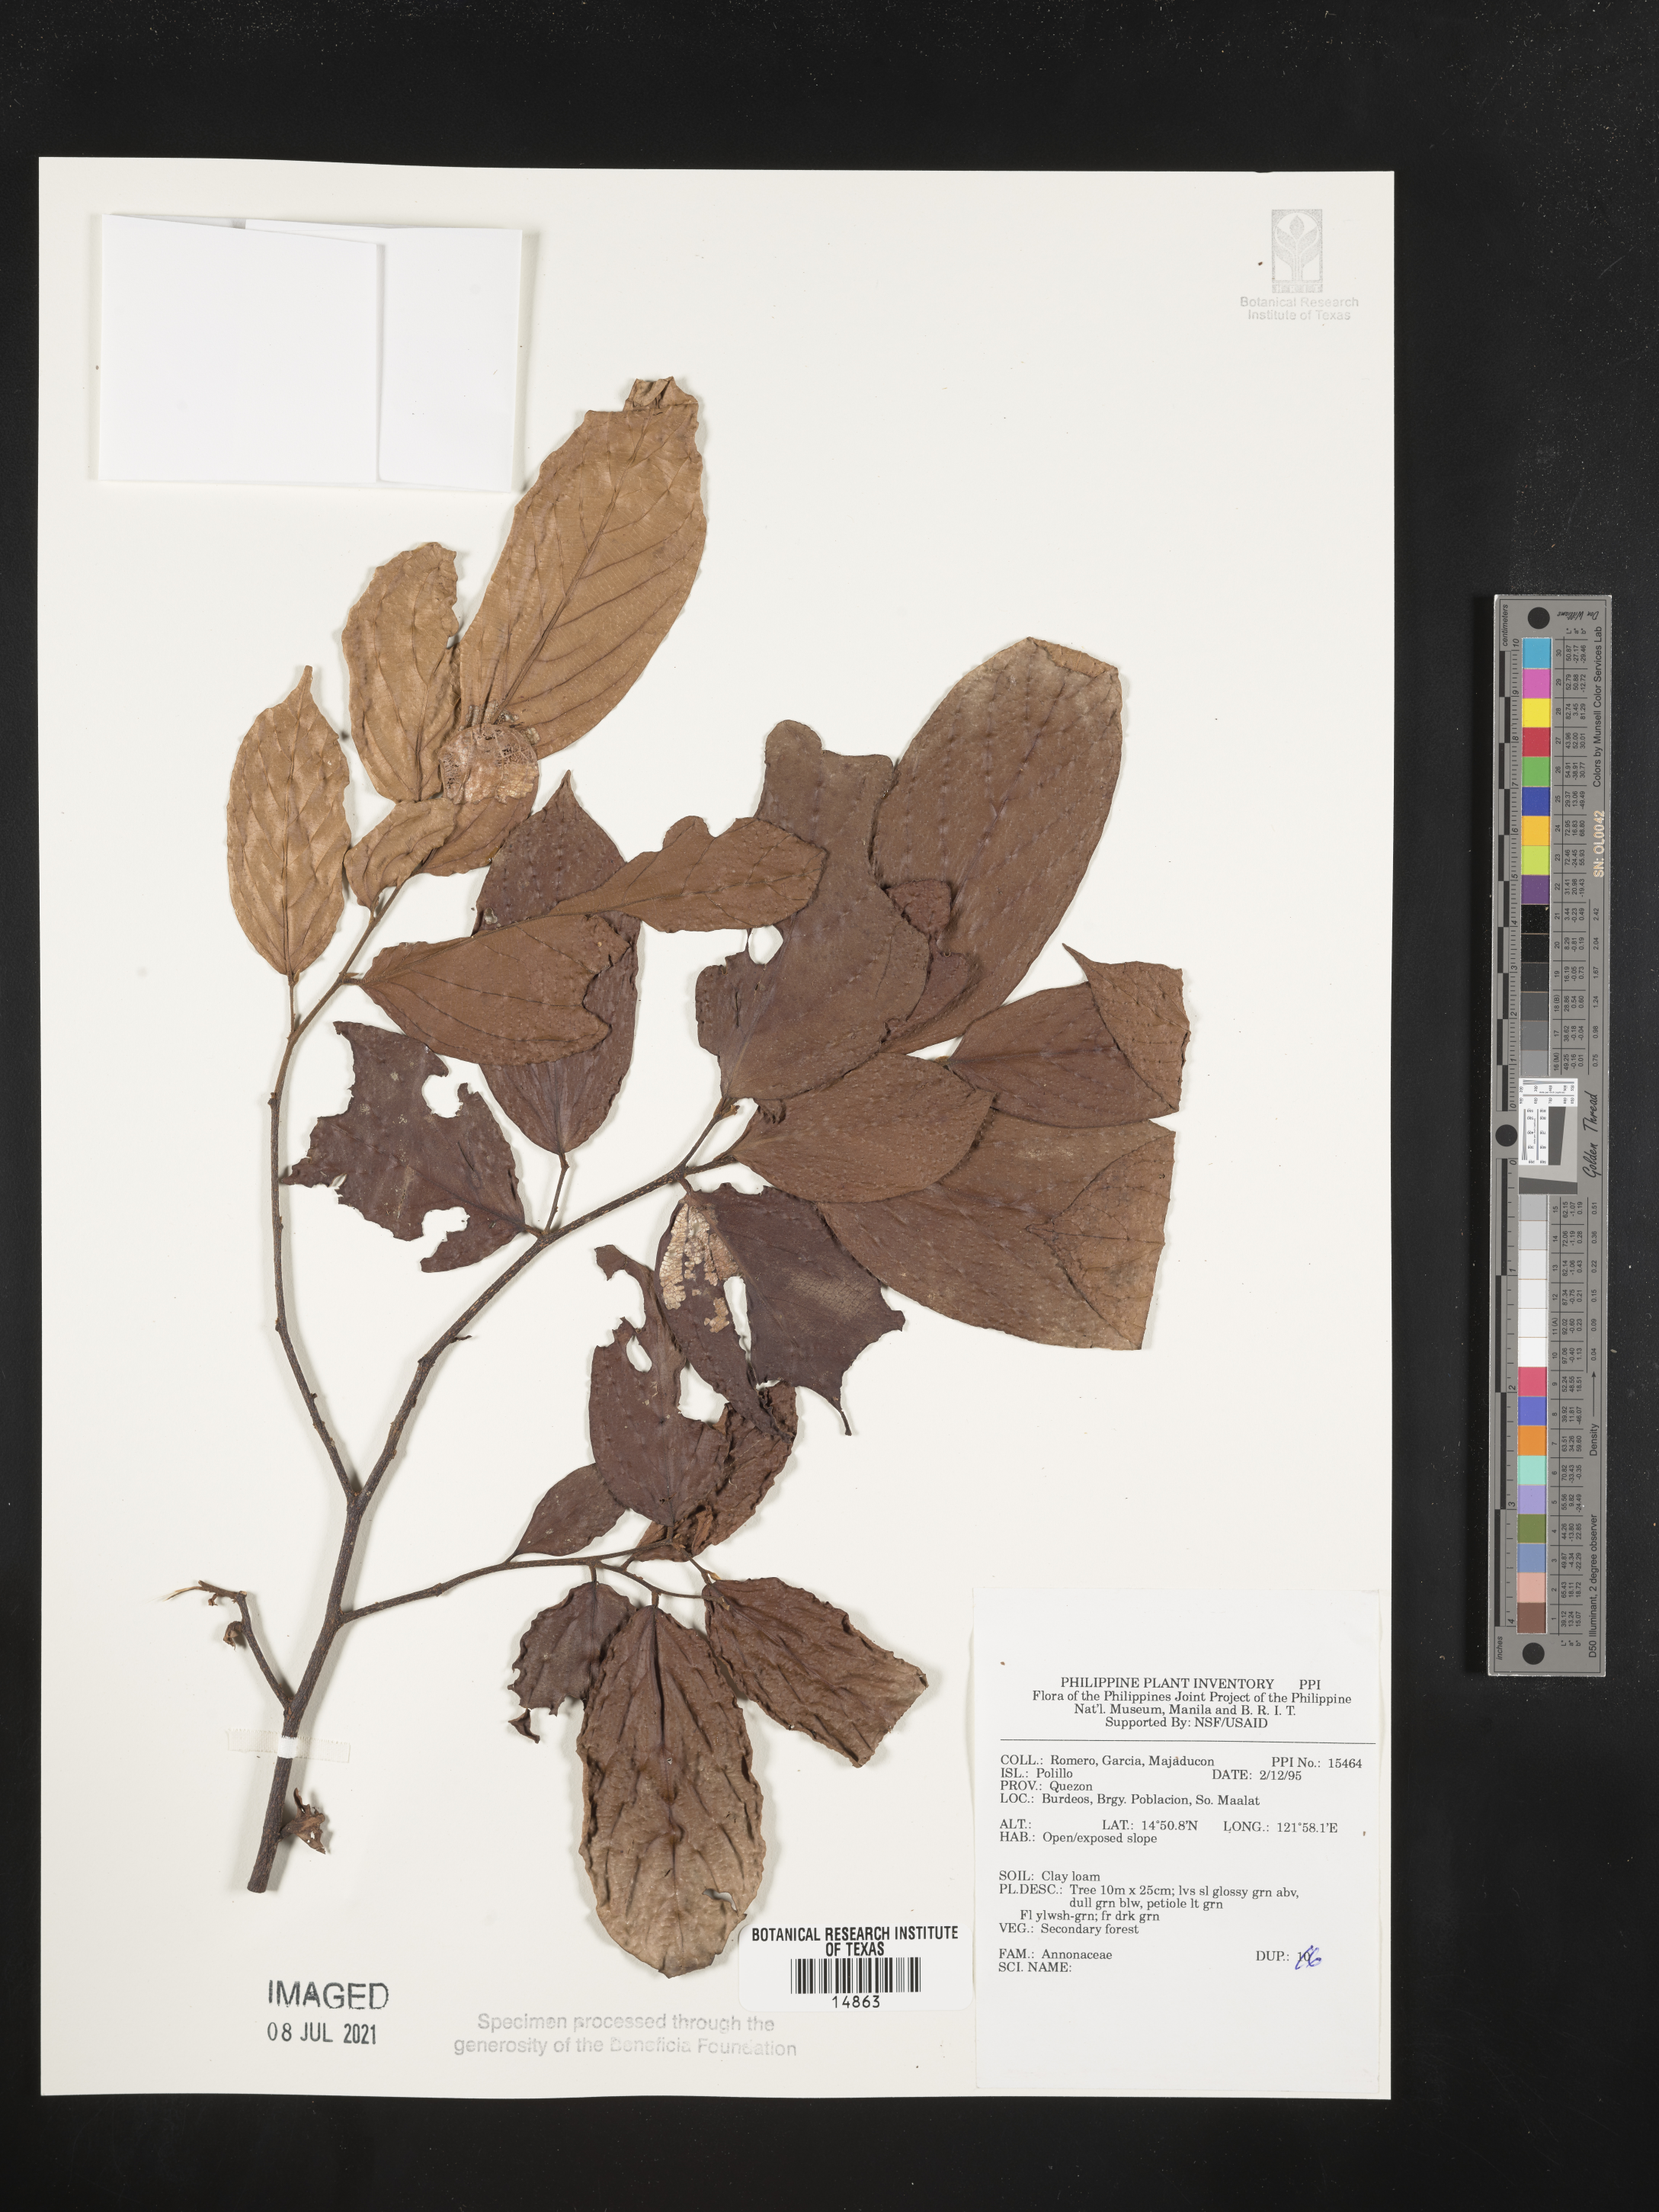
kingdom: Plantae
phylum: Tracheophyta
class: Magnoliopsida
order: Magnoliales
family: Annonaceae
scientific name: Annonaceae
